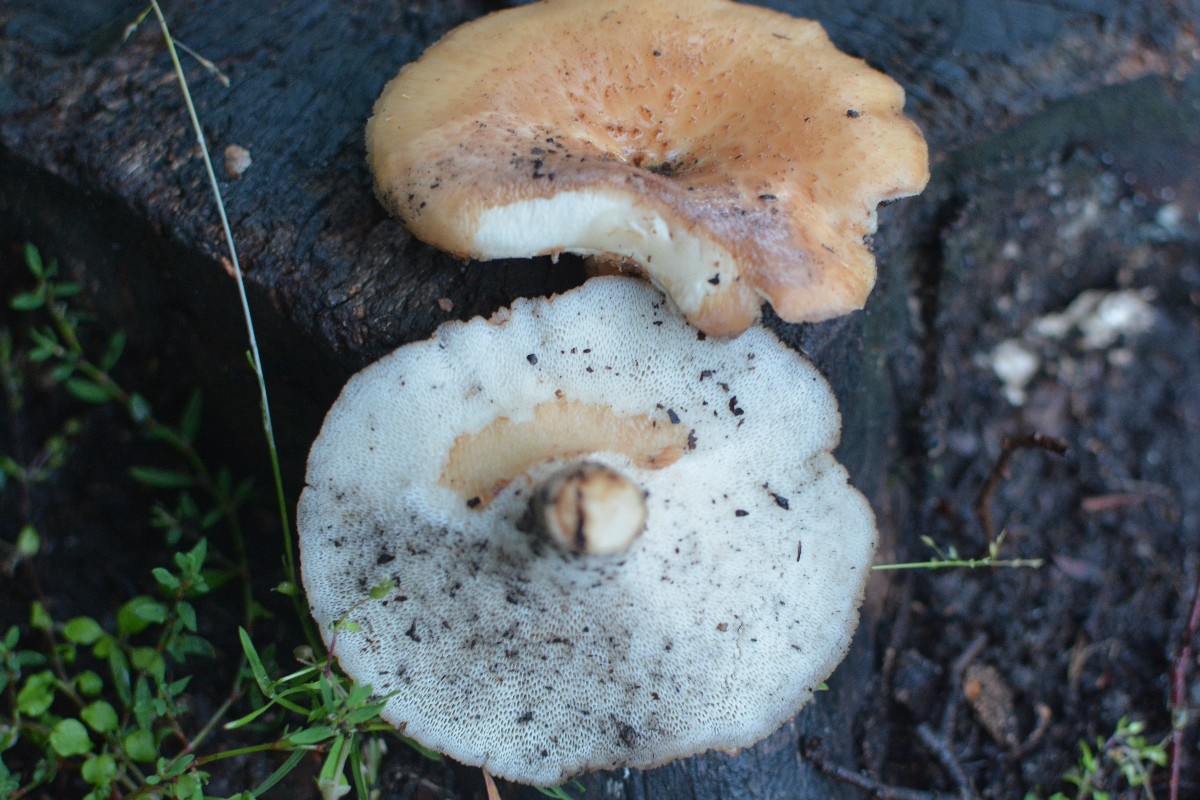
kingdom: Fungi
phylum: Basidiomycota
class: Agaricomycetes
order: Polyporales
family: Polyporaceae
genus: Polyporus
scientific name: Polyporus tuberaster
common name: knoldet stilkporesvamp
